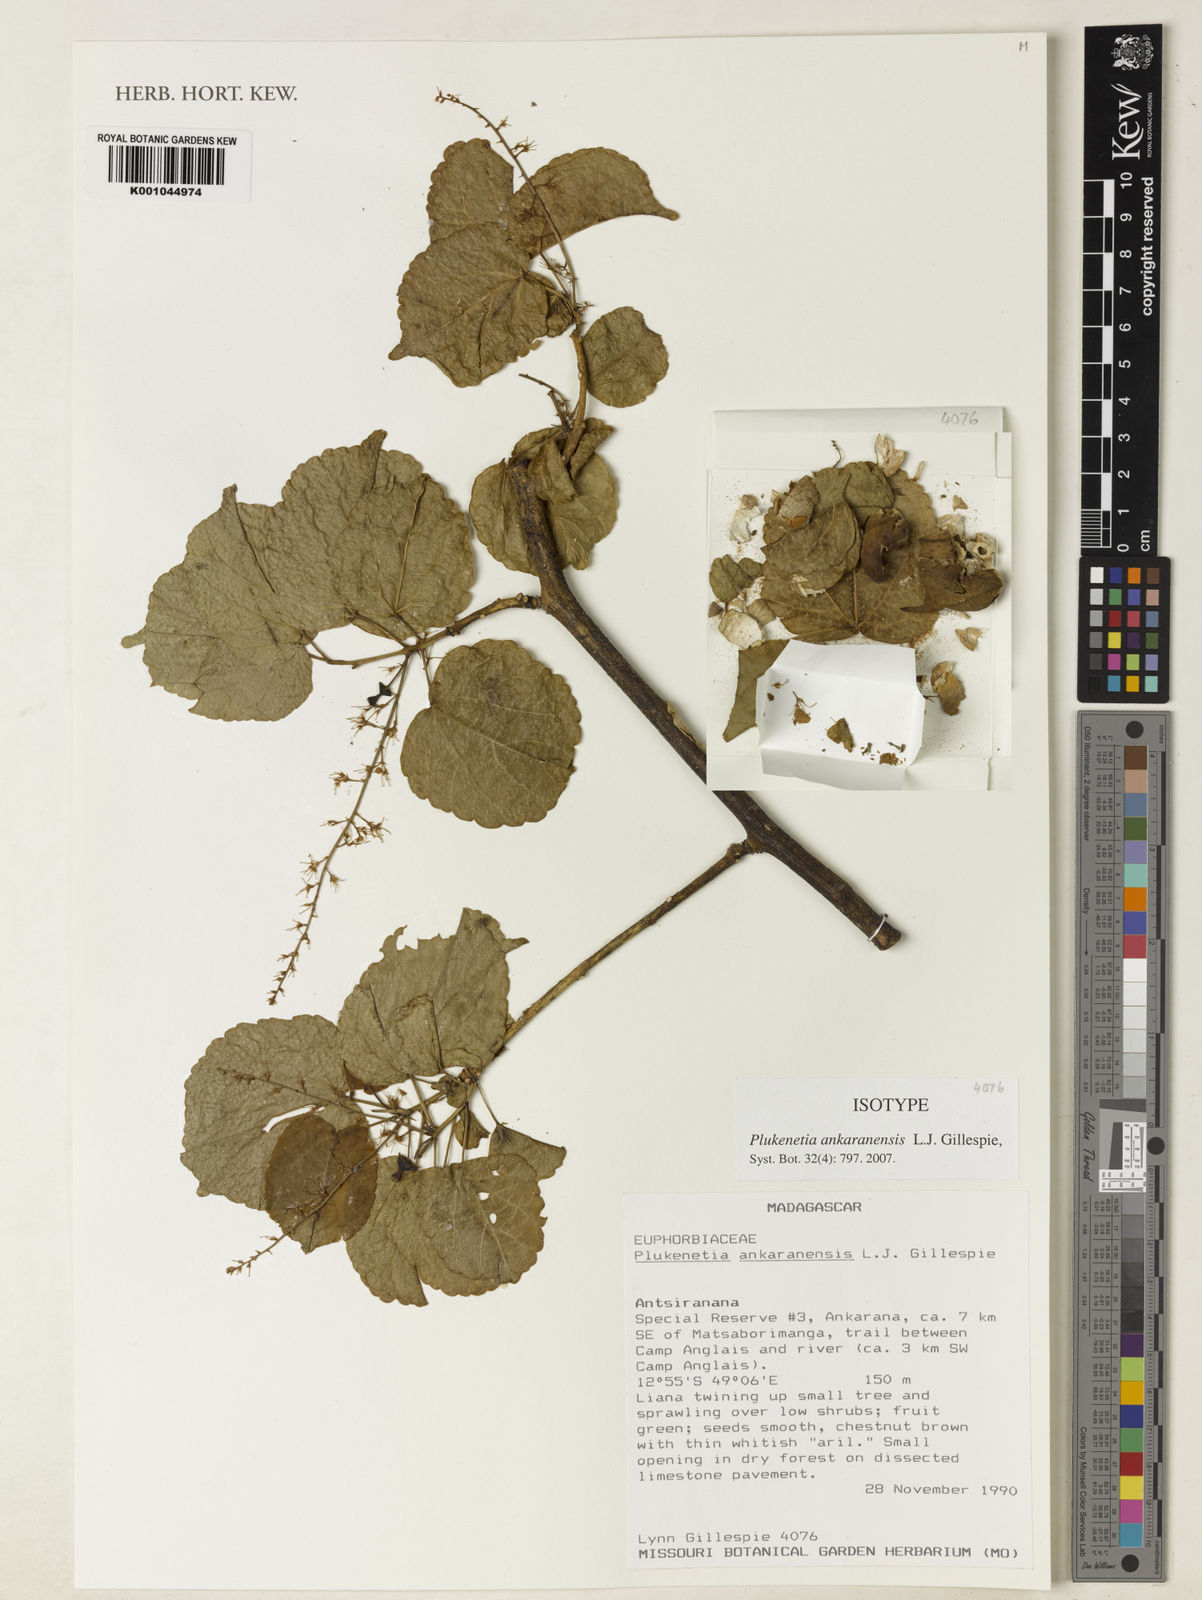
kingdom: Plantae
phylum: Tracheophyta
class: Magnoliopsida
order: Malpighiales
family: Euphorbiaceae
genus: Plukenetia
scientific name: Plukenetia ankaranensis
